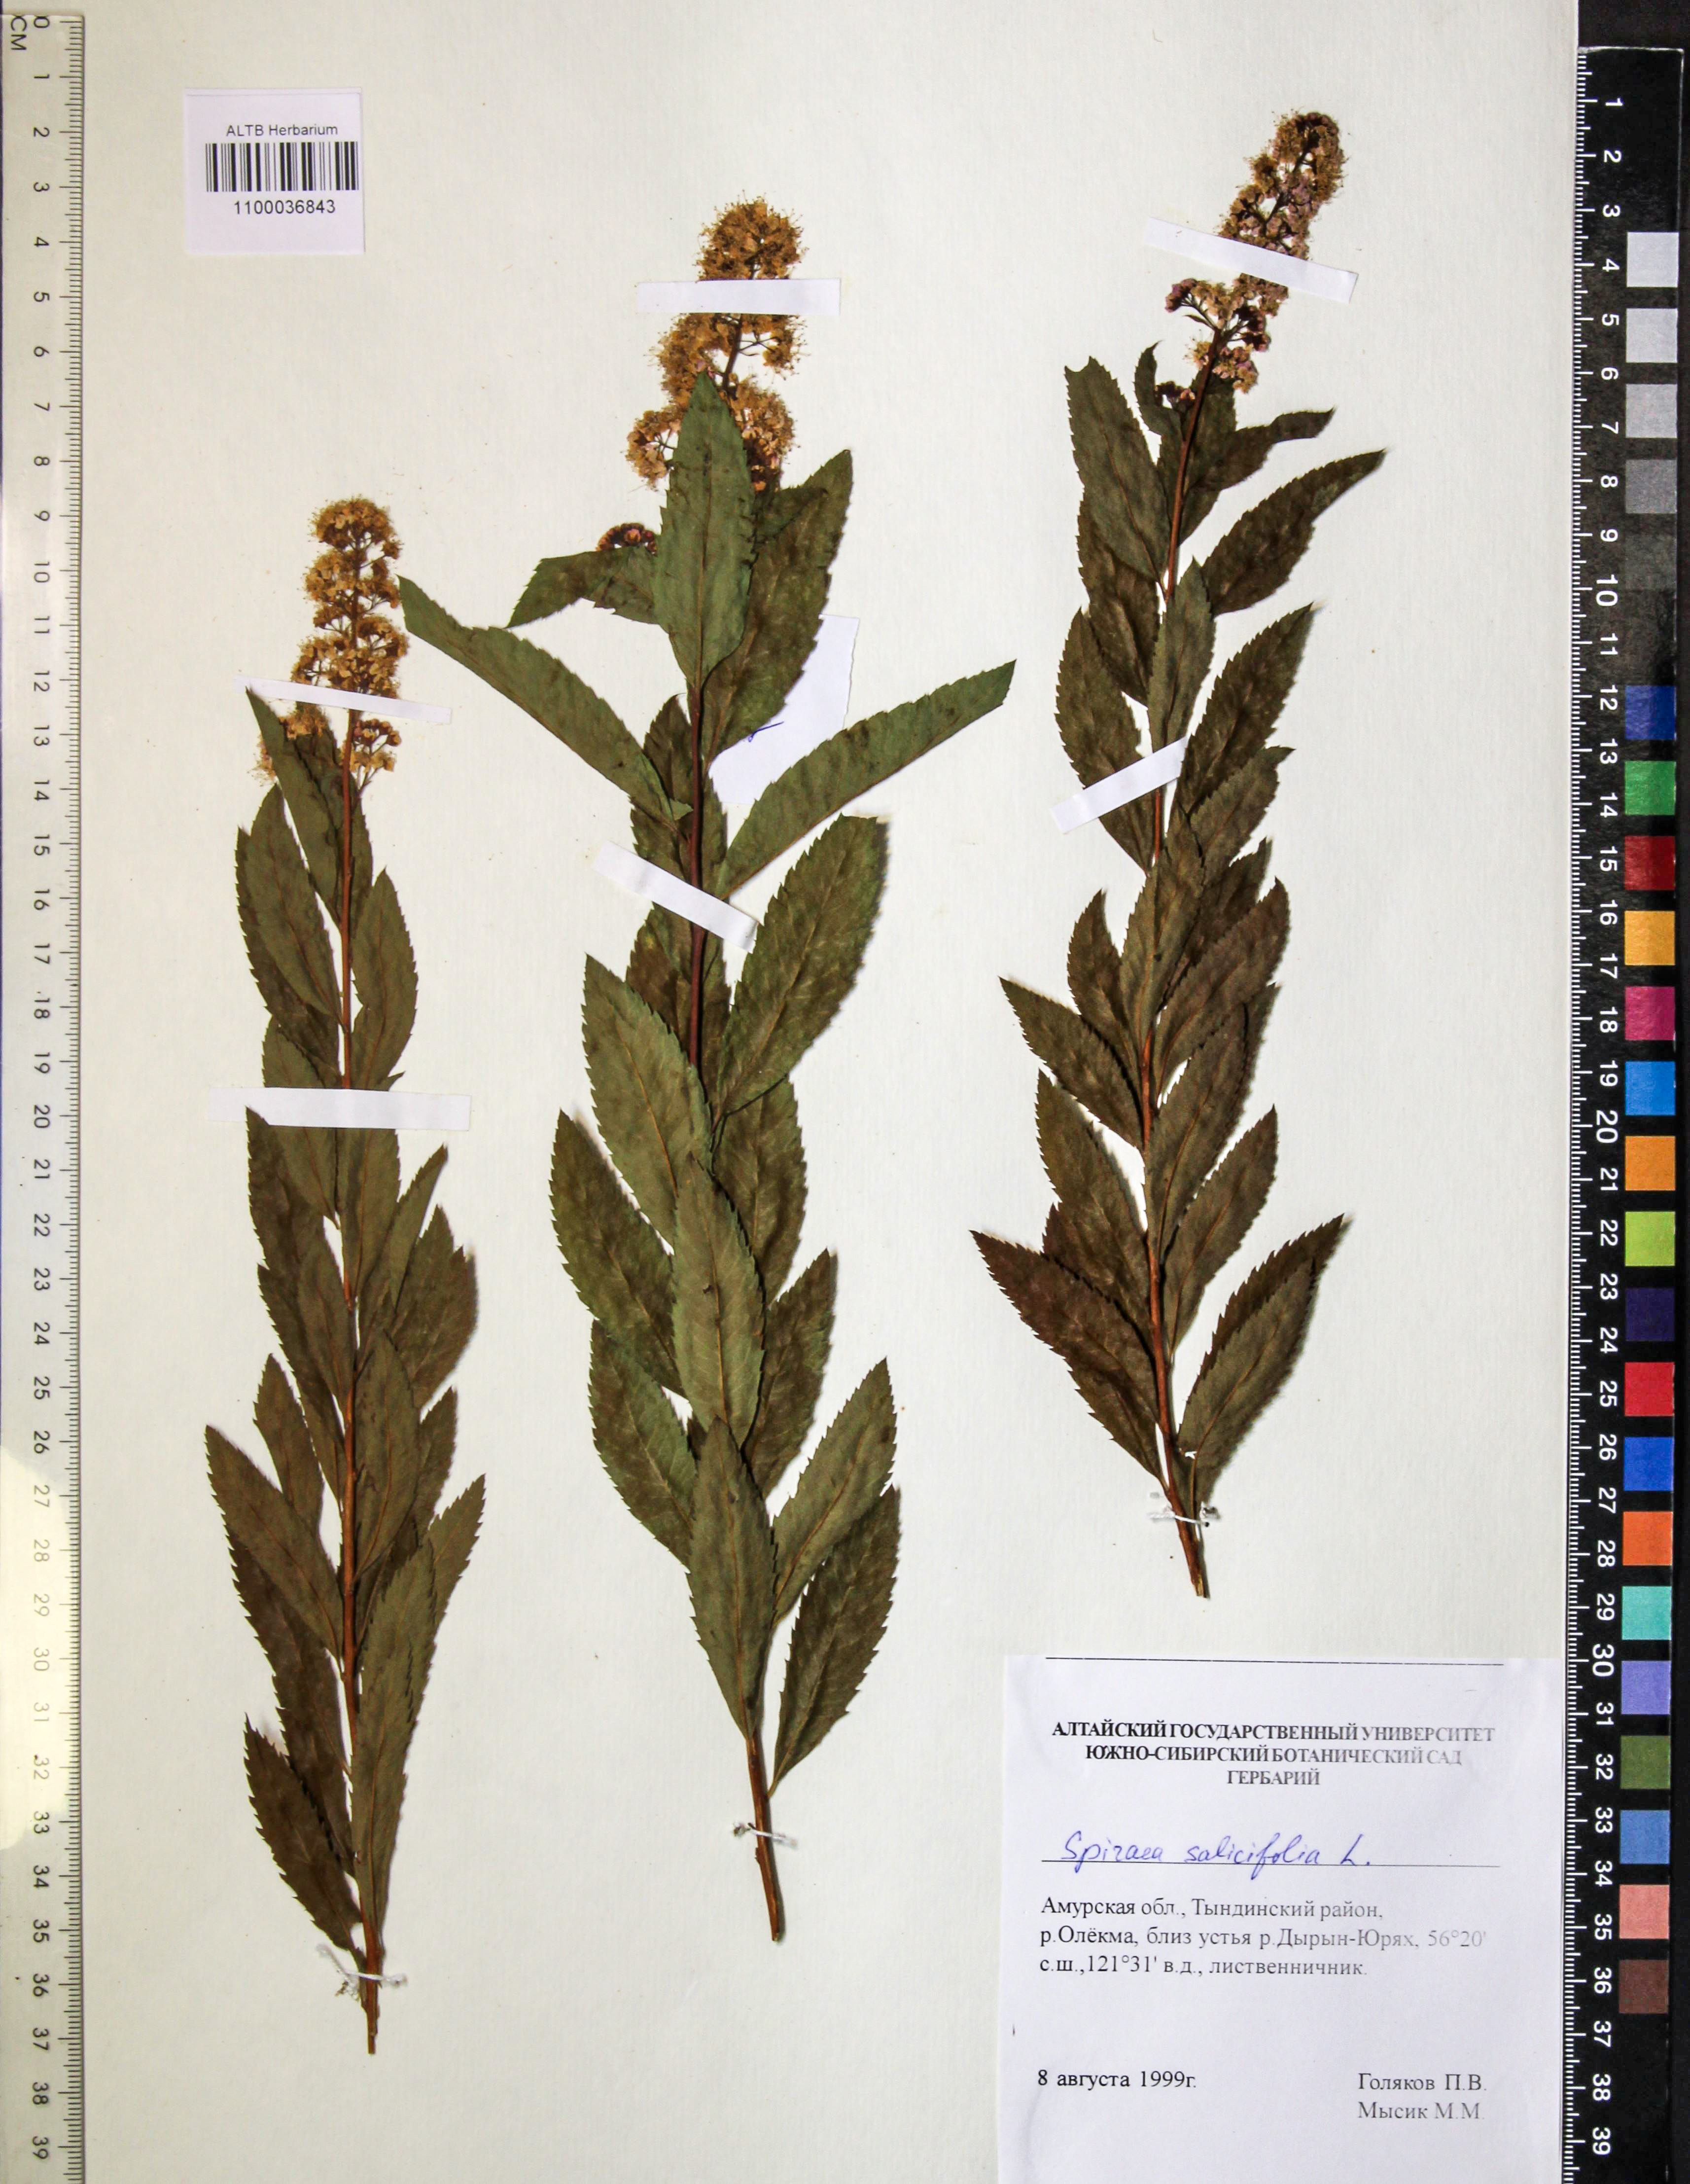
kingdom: Plantae
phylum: Tracheophyta
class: Magnoliopsida
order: Rosales
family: Rosaceae
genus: Spiraea
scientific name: Spiraea salicifolia
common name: Bridewort
